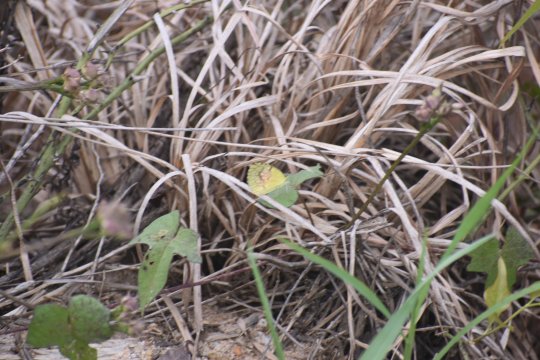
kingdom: Animalia
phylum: Arthropoda
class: Insecta
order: Lepidoptera
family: Pieridae
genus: Abaeis
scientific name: Abaeis nicippe
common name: Sleepy Orange
